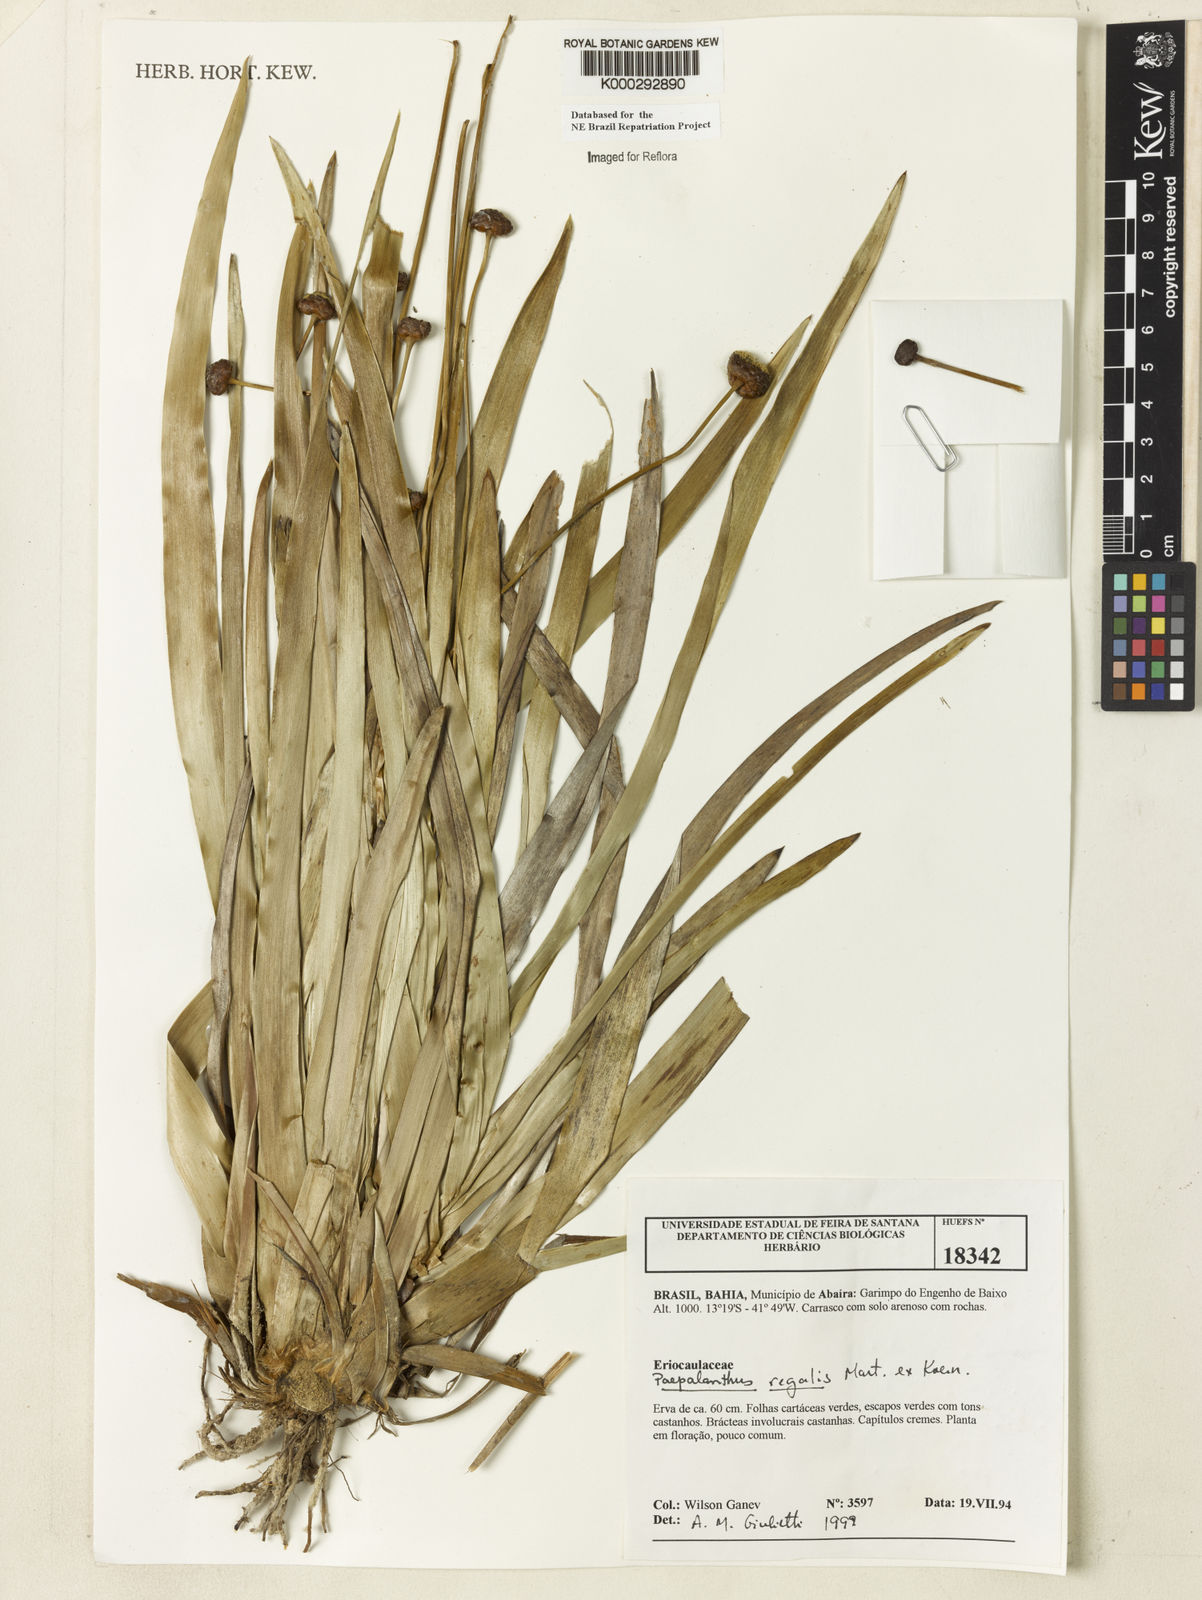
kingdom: Plantae
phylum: Tracheophyta
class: Liliopsida
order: Poales
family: Eriocaulaceae
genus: Paepalanthus
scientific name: Paepalanthus
